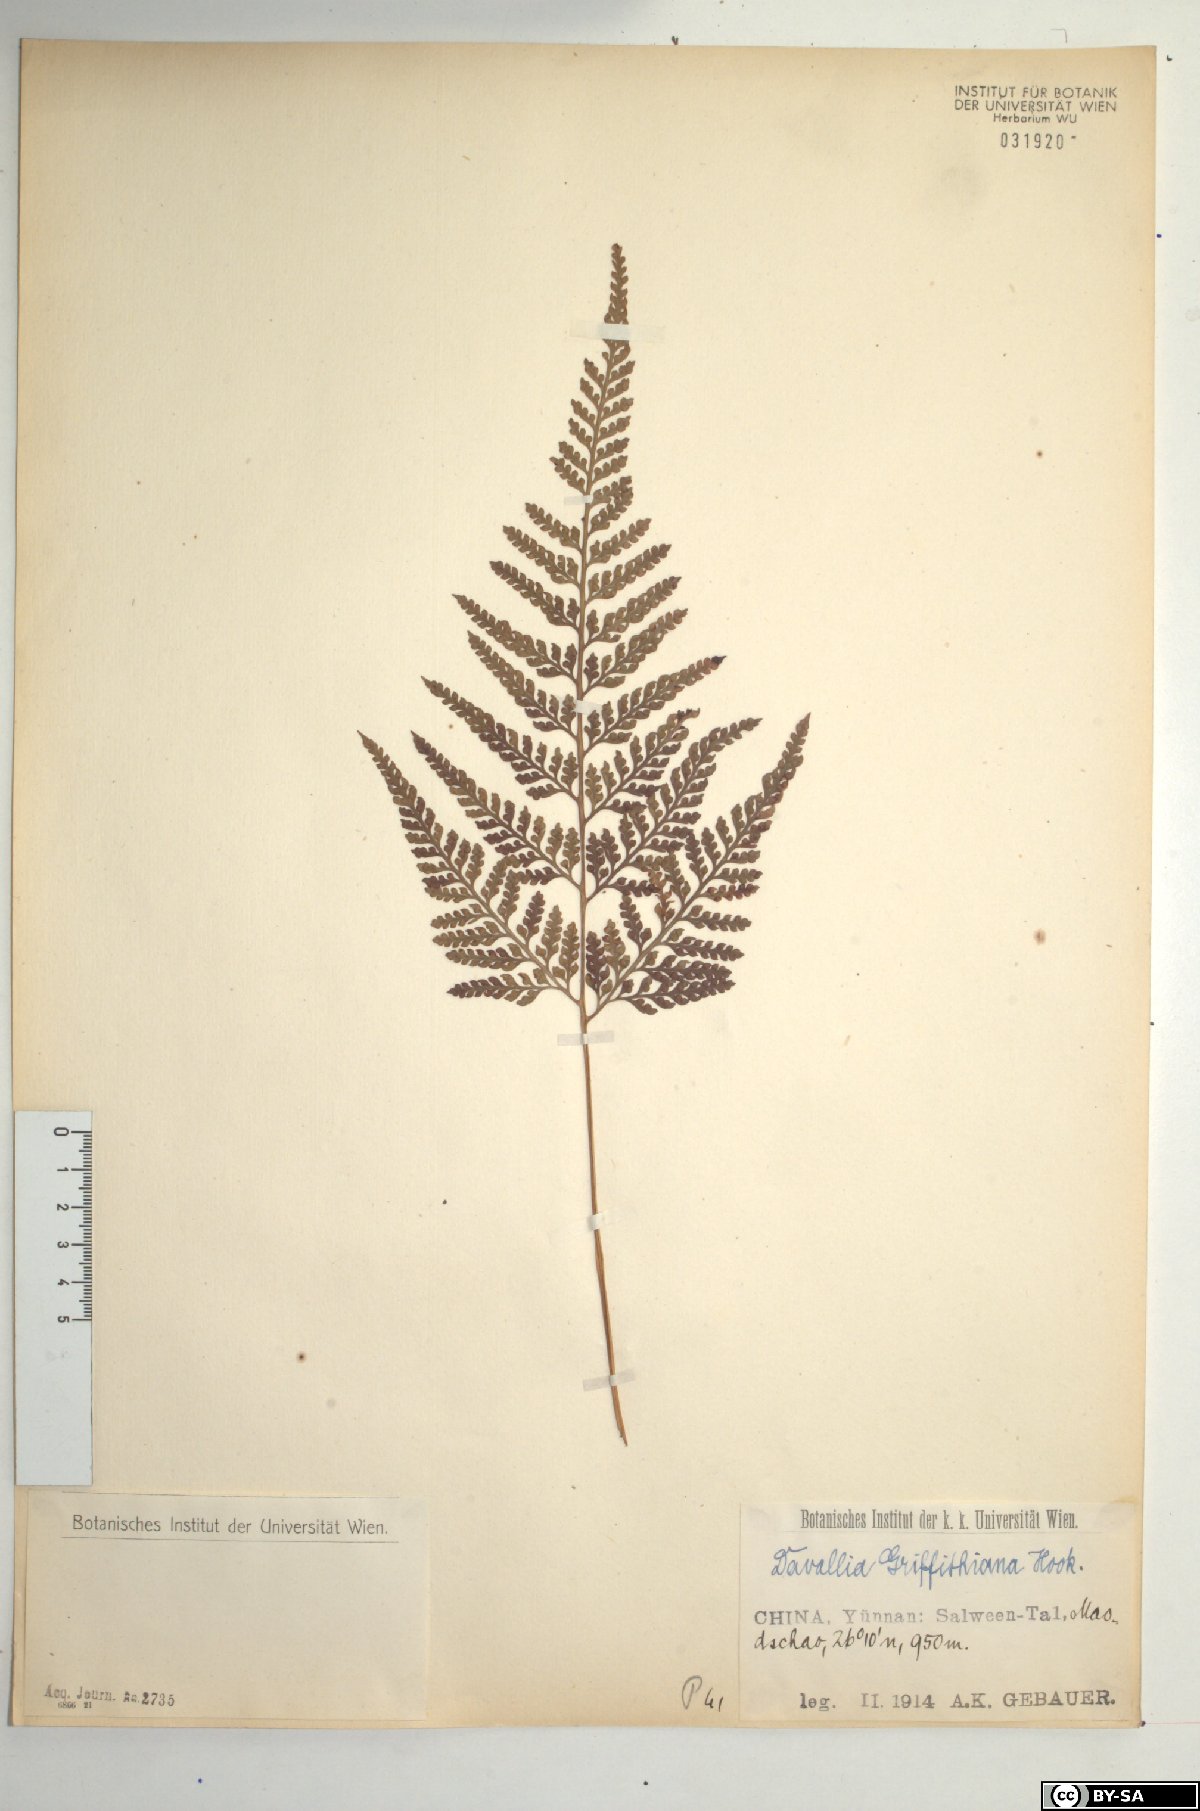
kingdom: Plantae
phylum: Tracheophyta
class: Polypodiopsida
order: Polypodiales
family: Davalliaceae
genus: Davallia
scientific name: Davallia griffithiana
